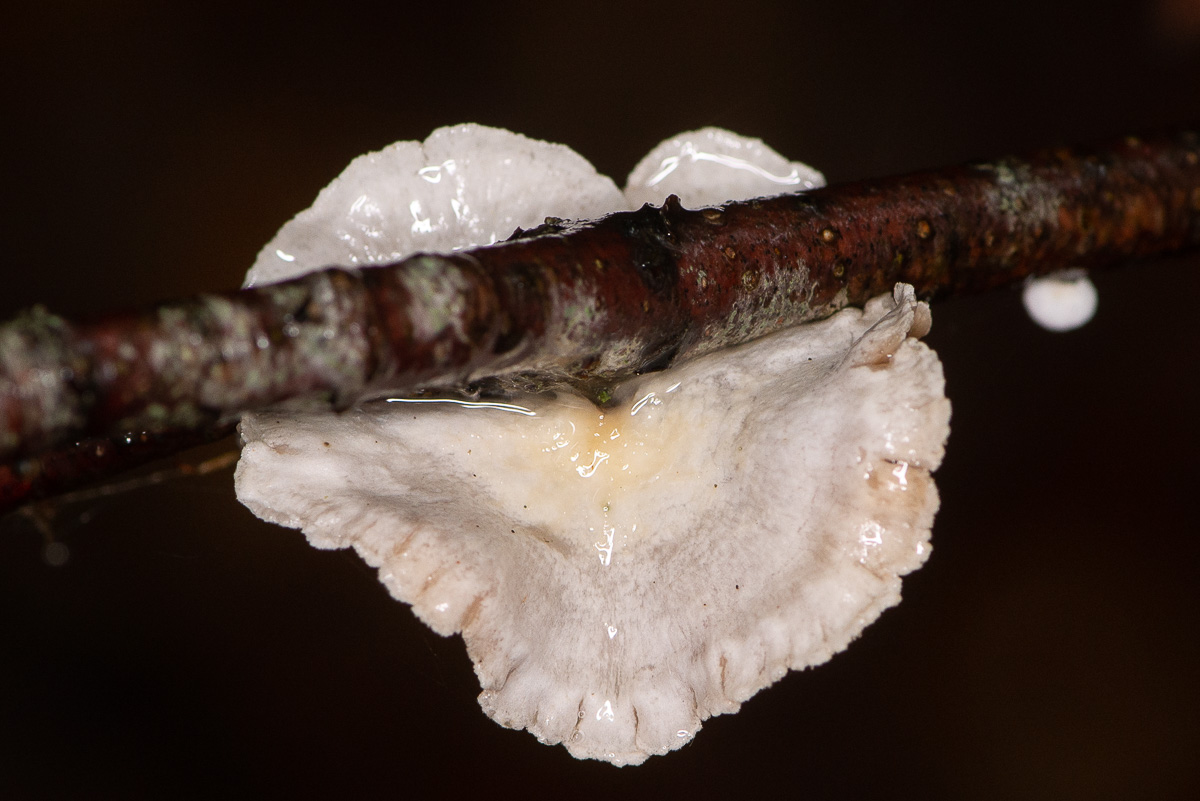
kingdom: Fungi
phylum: Basidiomycota
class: Agaricomycetes
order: Agaricales
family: Crepidotaceae
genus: Crepidotus
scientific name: Crepidotus
